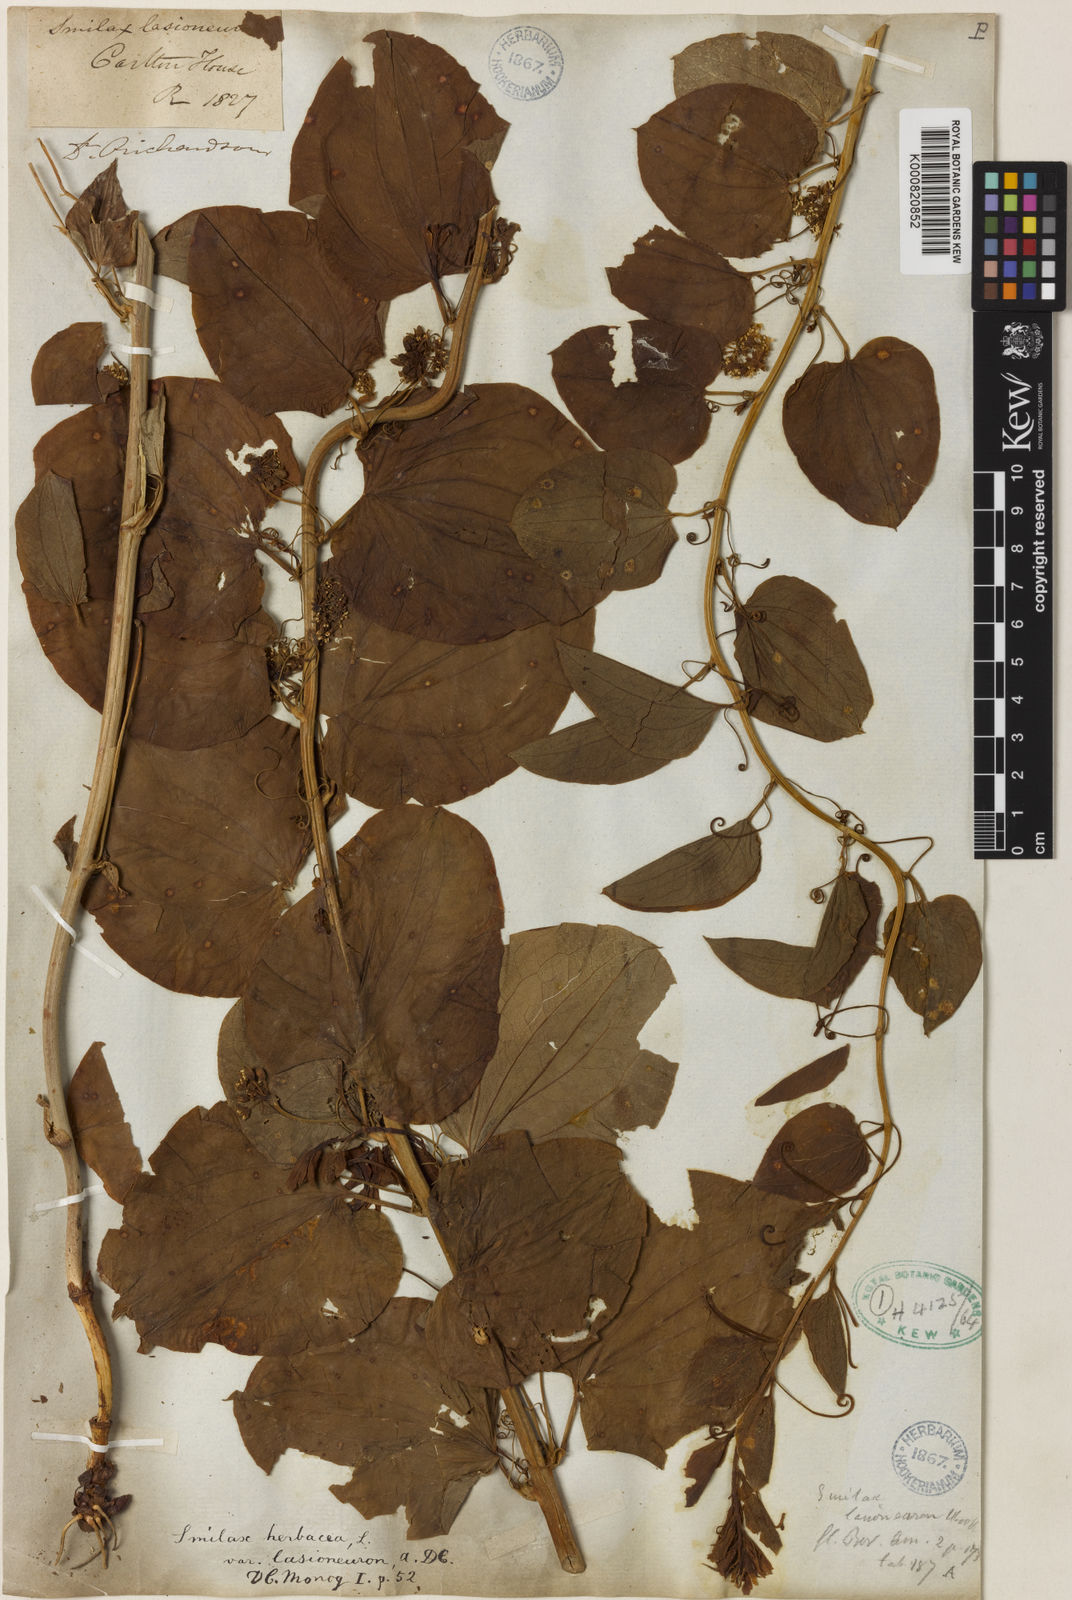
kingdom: Plantae
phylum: Tracheophyta
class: Liliopsida
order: Liliales
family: Smilacaceae
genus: Smilax
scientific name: Smilax lasioneura
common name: Blue ridge carrionflower
